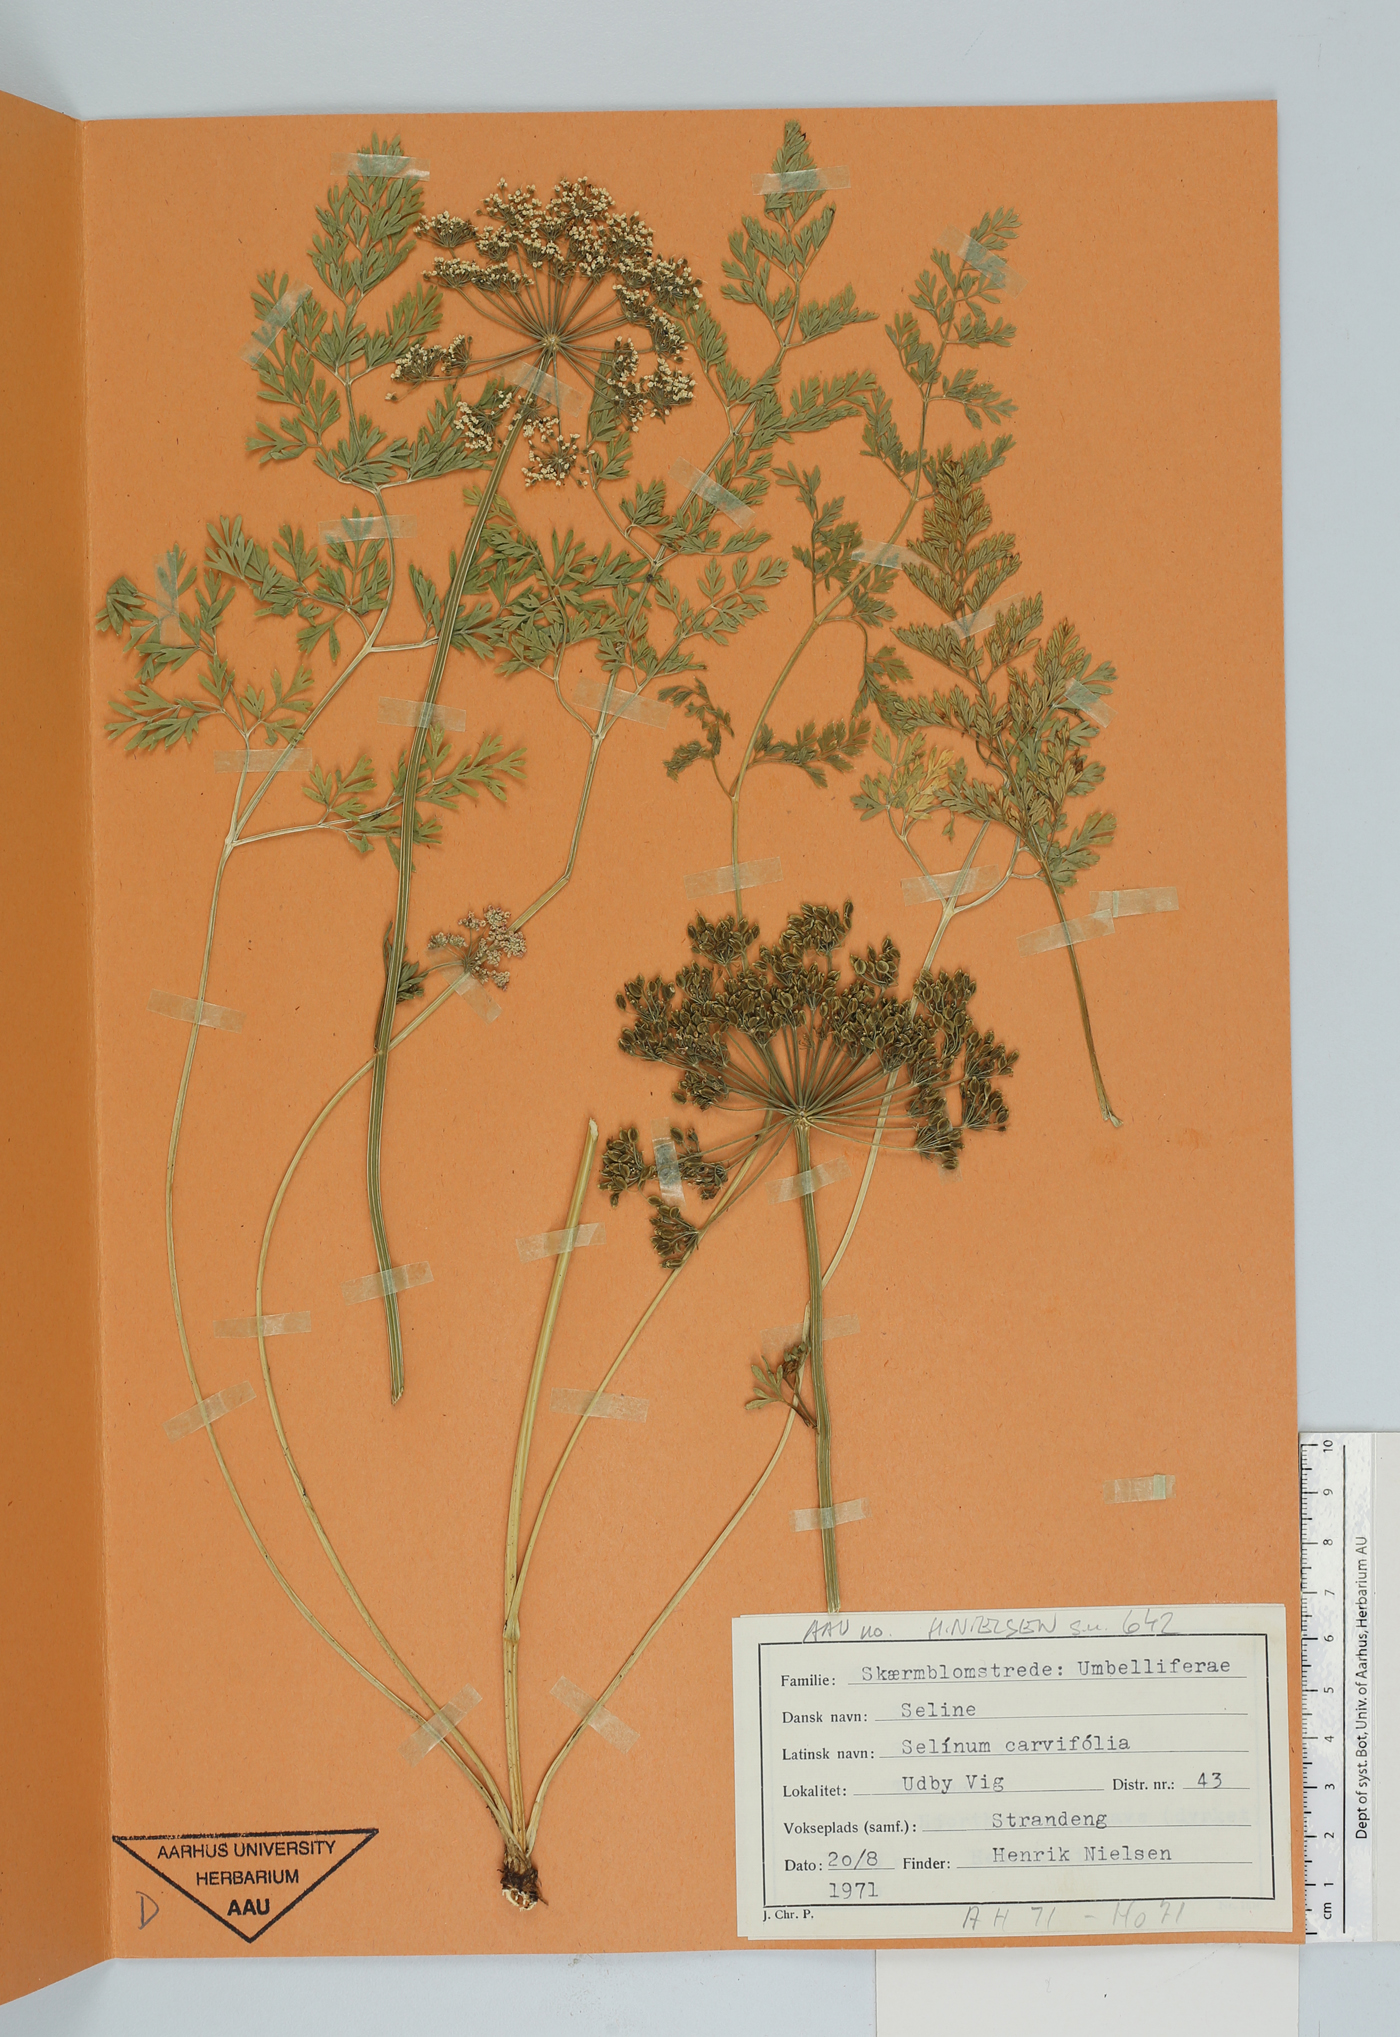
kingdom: Plantae
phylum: Tracheophyta
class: Magnoliopsida
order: Apiales
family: Apiaceae
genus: Selinum
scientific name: Selinum carvifolia
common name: Cambridge milk-parsley
